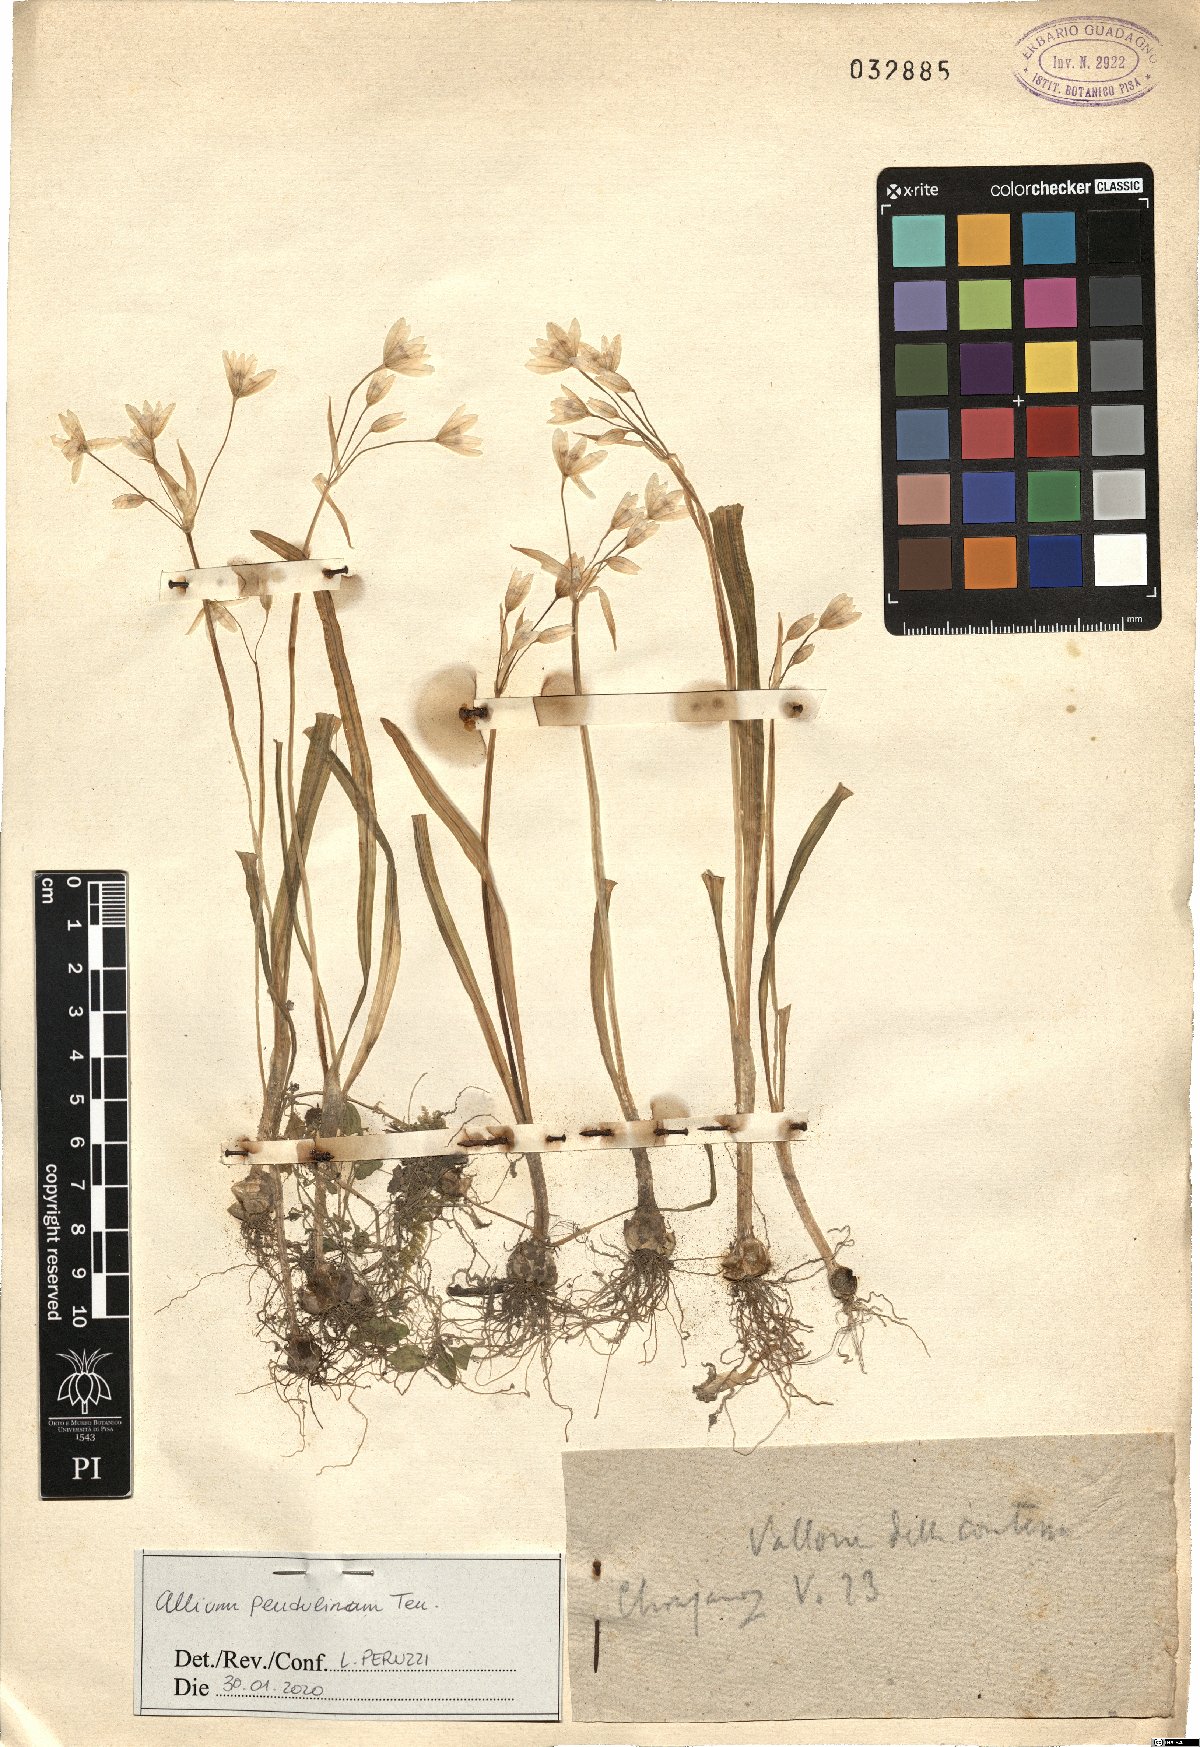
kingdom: Plantae
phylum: Tracheophyta
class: Liliopsida
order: Asparagales
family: Amaryllidaceae
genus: Allium
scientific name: Allium pendulinum
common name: Italian garlic
